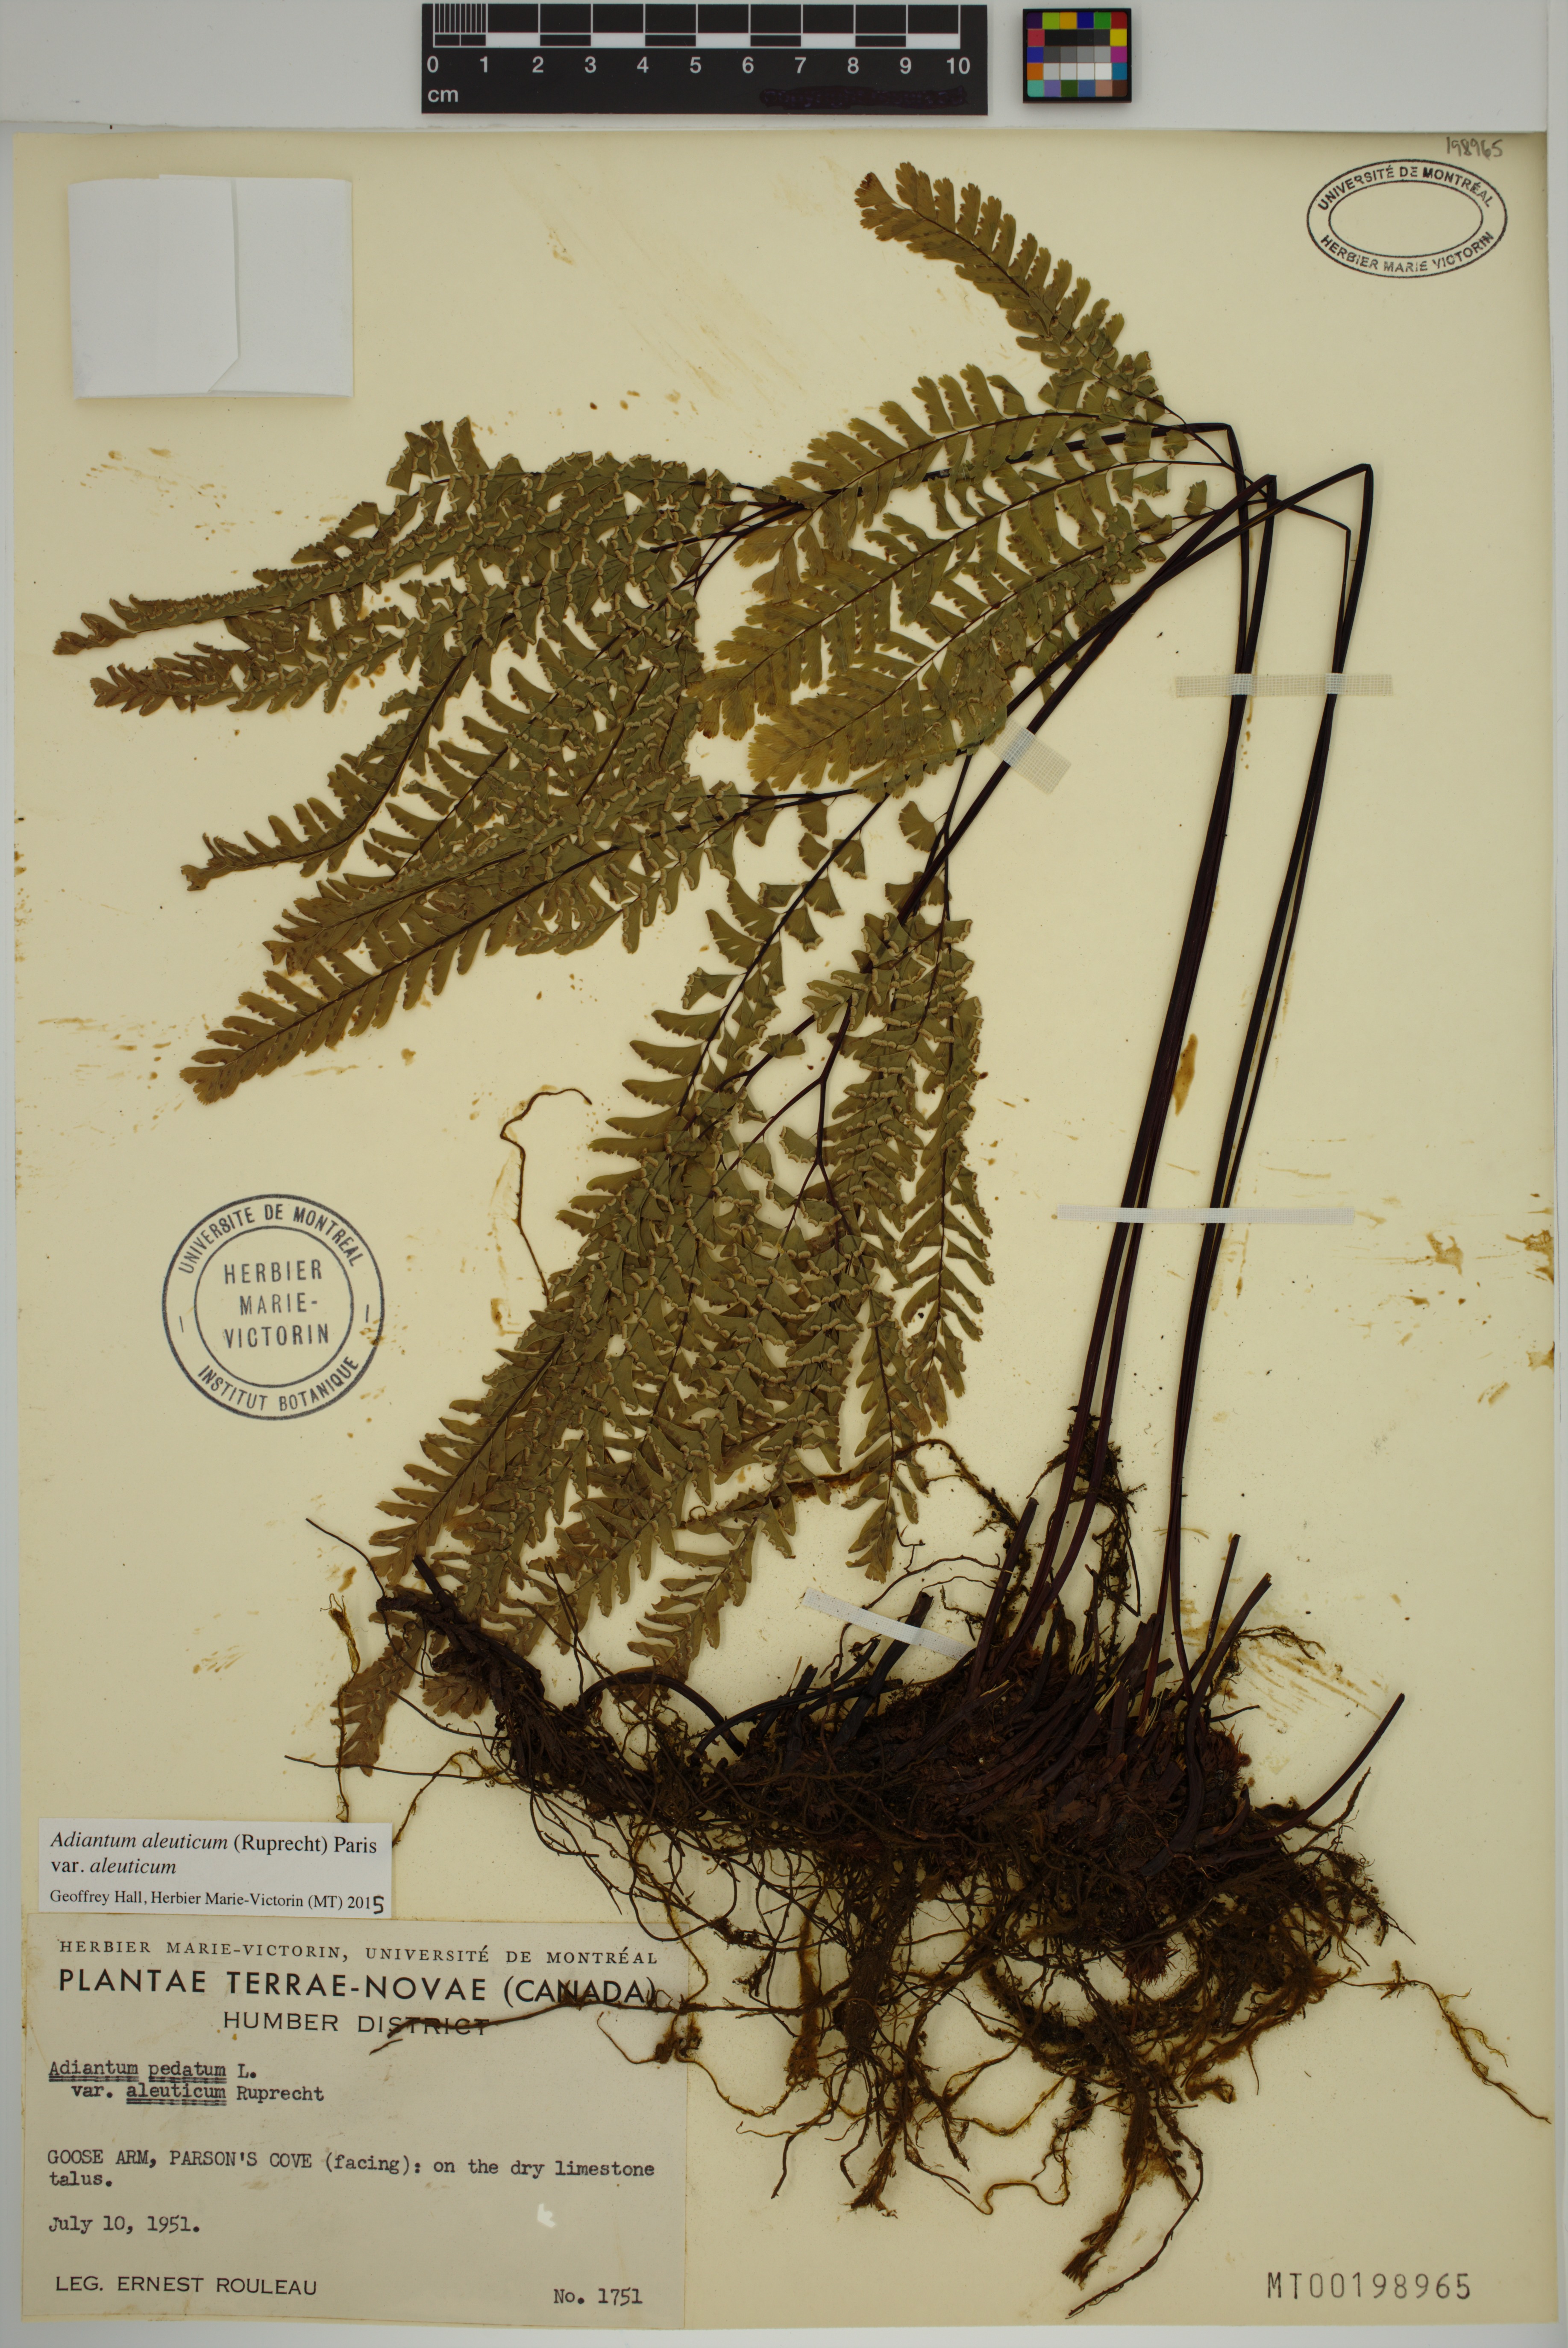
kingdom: Plantae
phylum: Tracheophyta
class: Polypodiopsida
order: Polypodiales
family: Pteridaceae
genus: Adiantum
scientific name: Adiantum aleuticum
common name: Aleutian maidenhair fern
